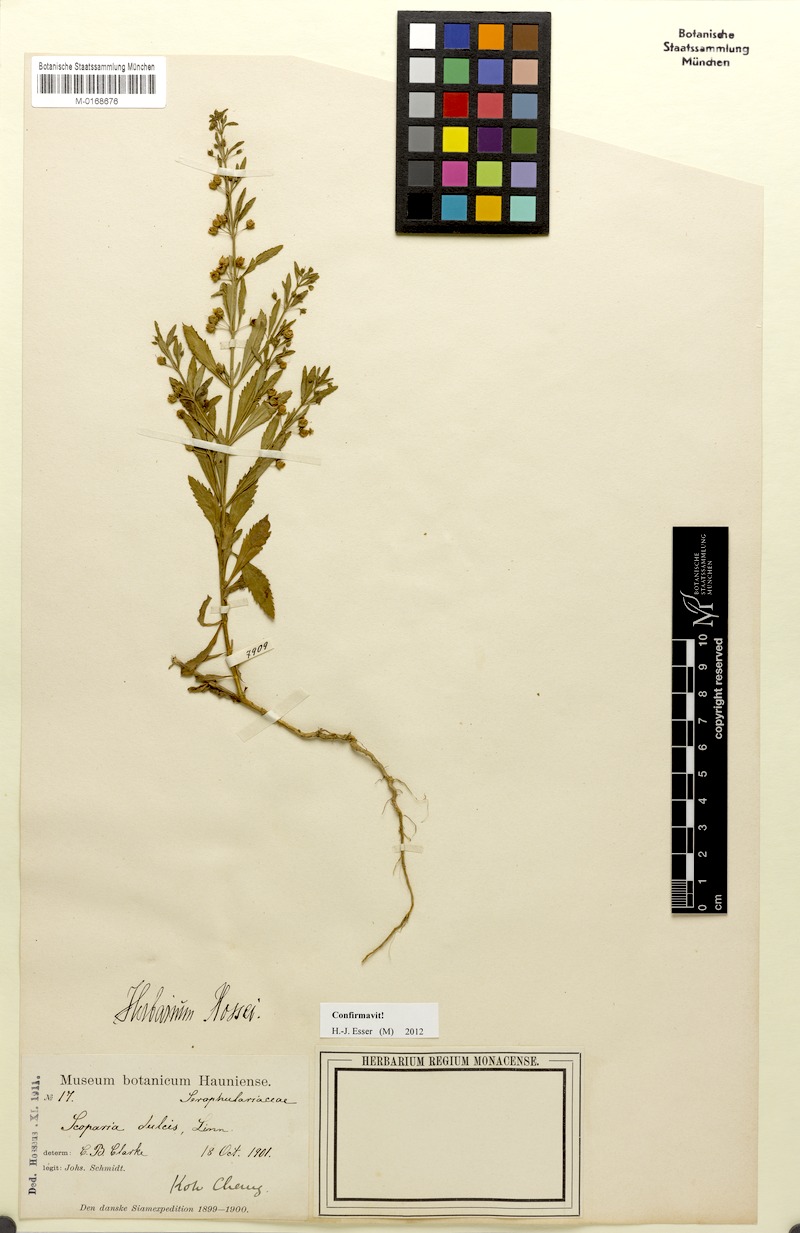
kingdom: Plantae
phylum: Tracheophyta
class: Magnoliopsida
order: Lamiales
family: Plantaginaceae
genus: Scoparia
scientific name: Scoparia dulcis
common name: Scoparia-weed
